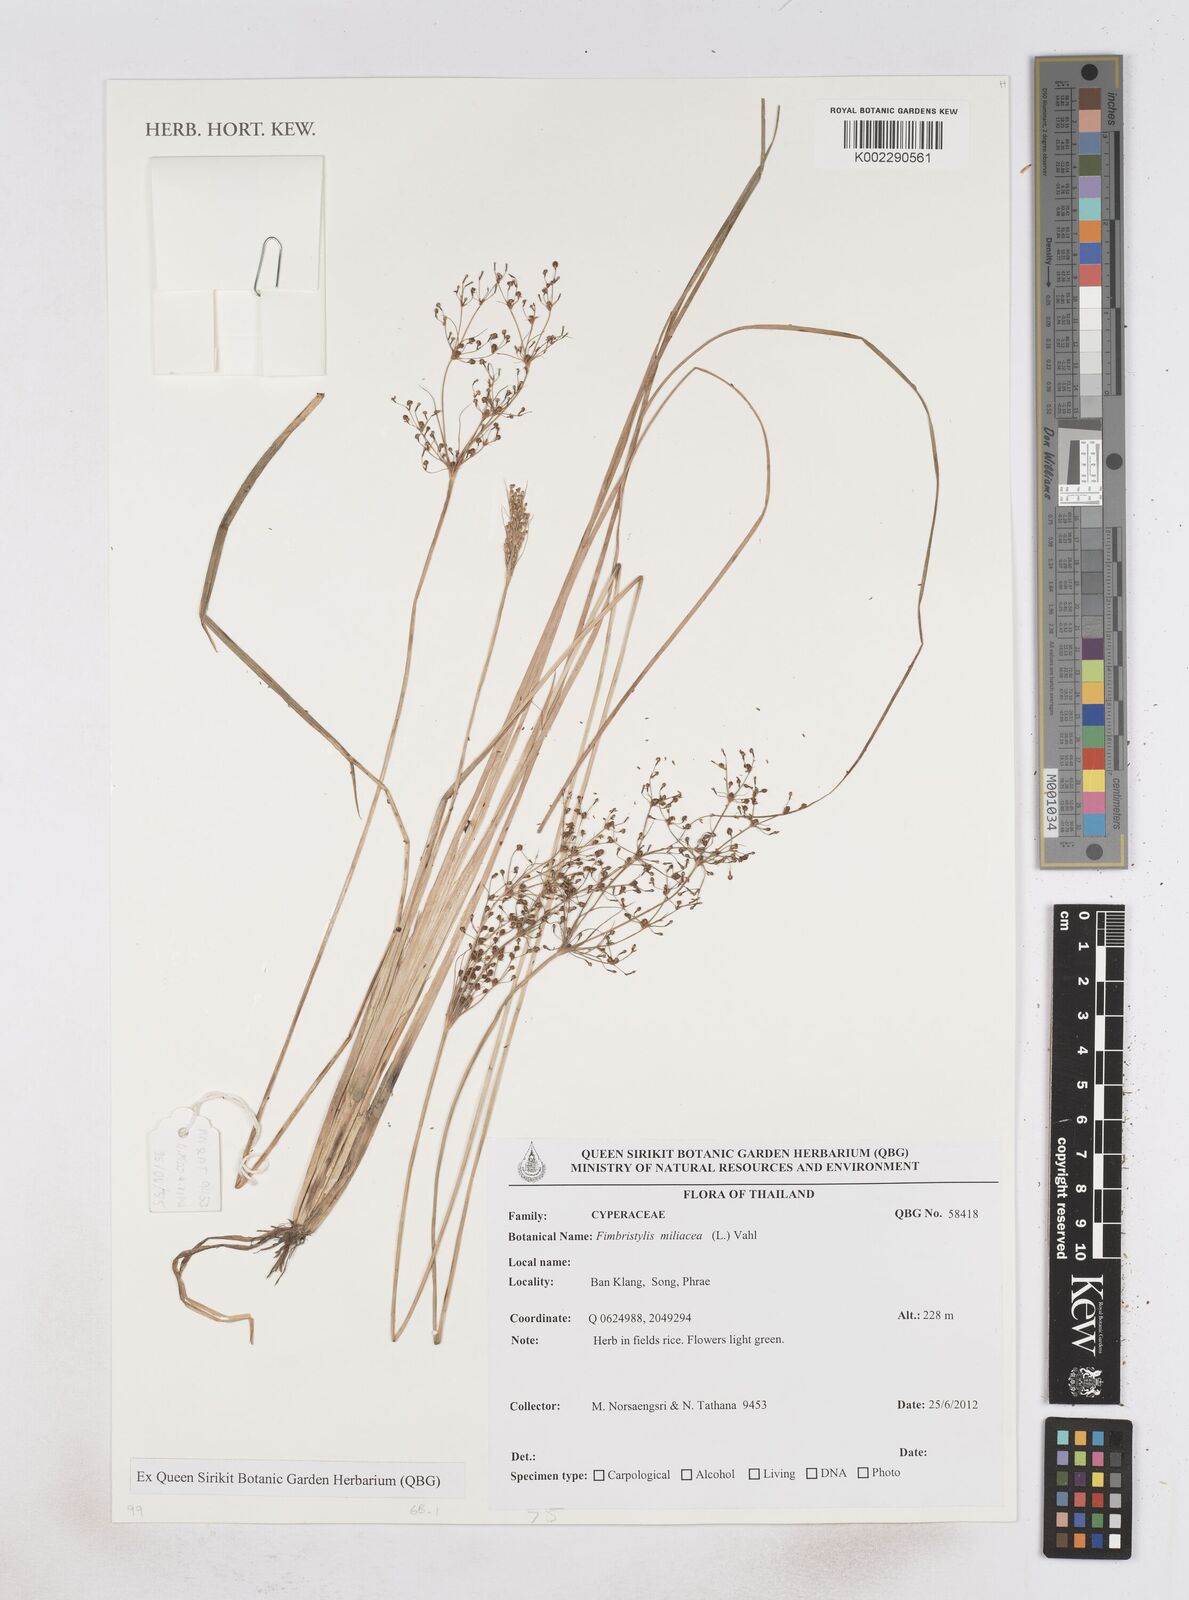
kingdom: Plantae
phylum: Tracheophyta
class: Liliopsida
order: Poales
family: Cyperaceae
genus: Fimbristylis
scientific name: Fimbristylis quinquangularis
